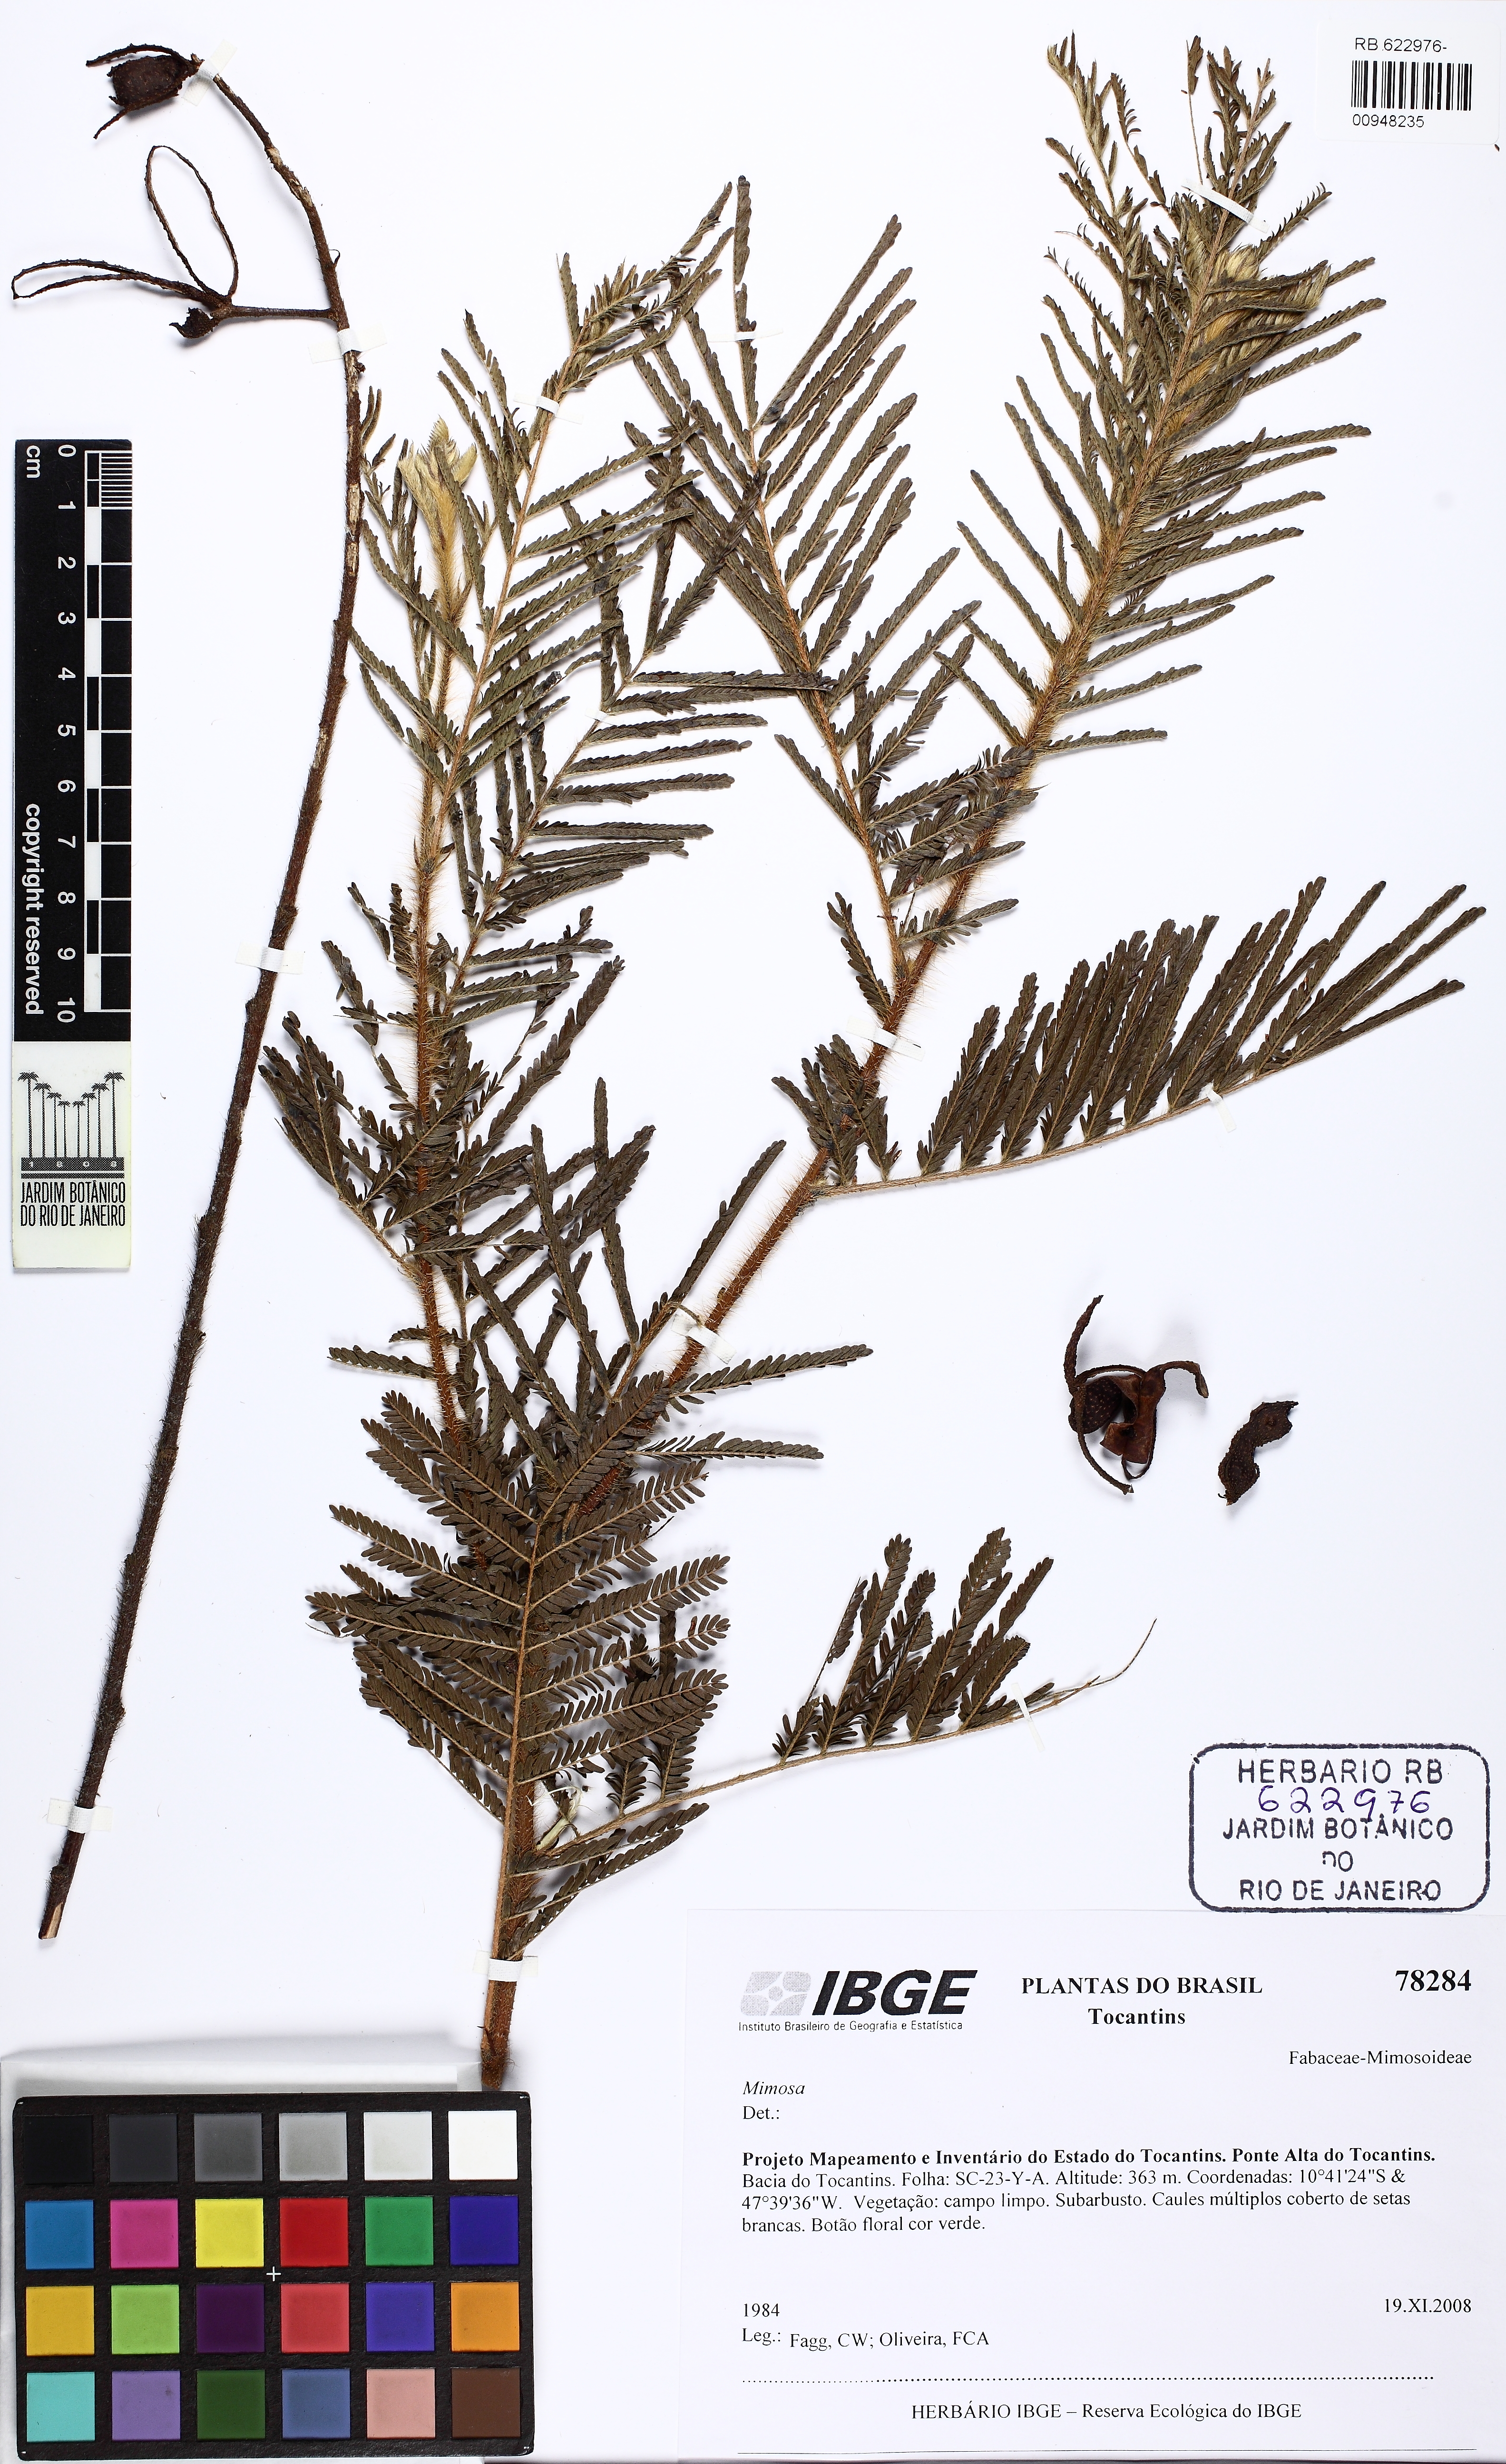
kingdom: Plantae
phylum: Tracheophyta
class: Magnoliopsida
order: Fabales
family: Fabaceae
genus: Mimosa
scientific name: Mimosa
